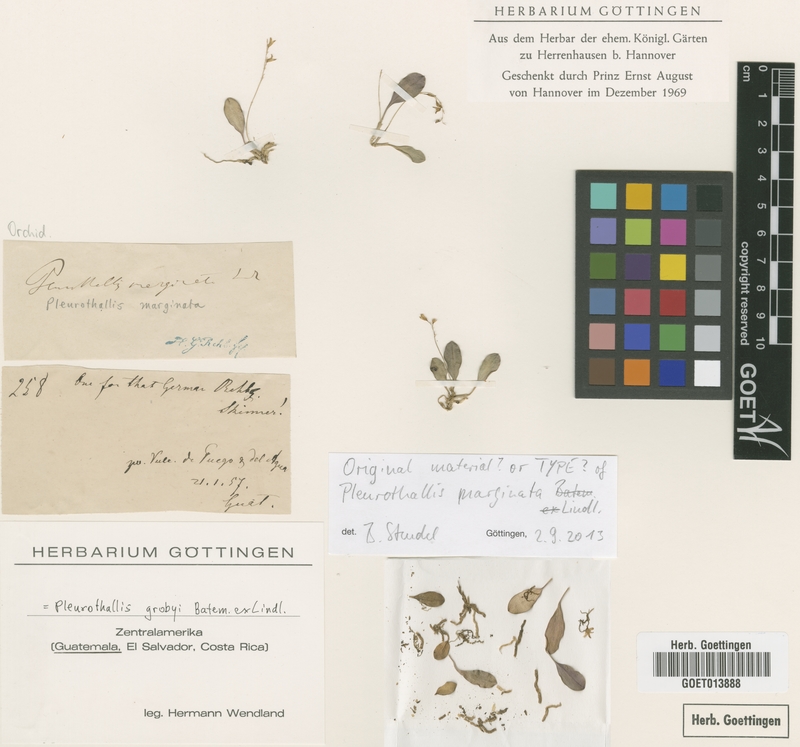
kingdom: Plantae
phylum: Tracheophyta
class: Liliopsida
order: Asparagales
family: Orchidaceae
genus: Specklinia
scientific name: Specklinia picta
